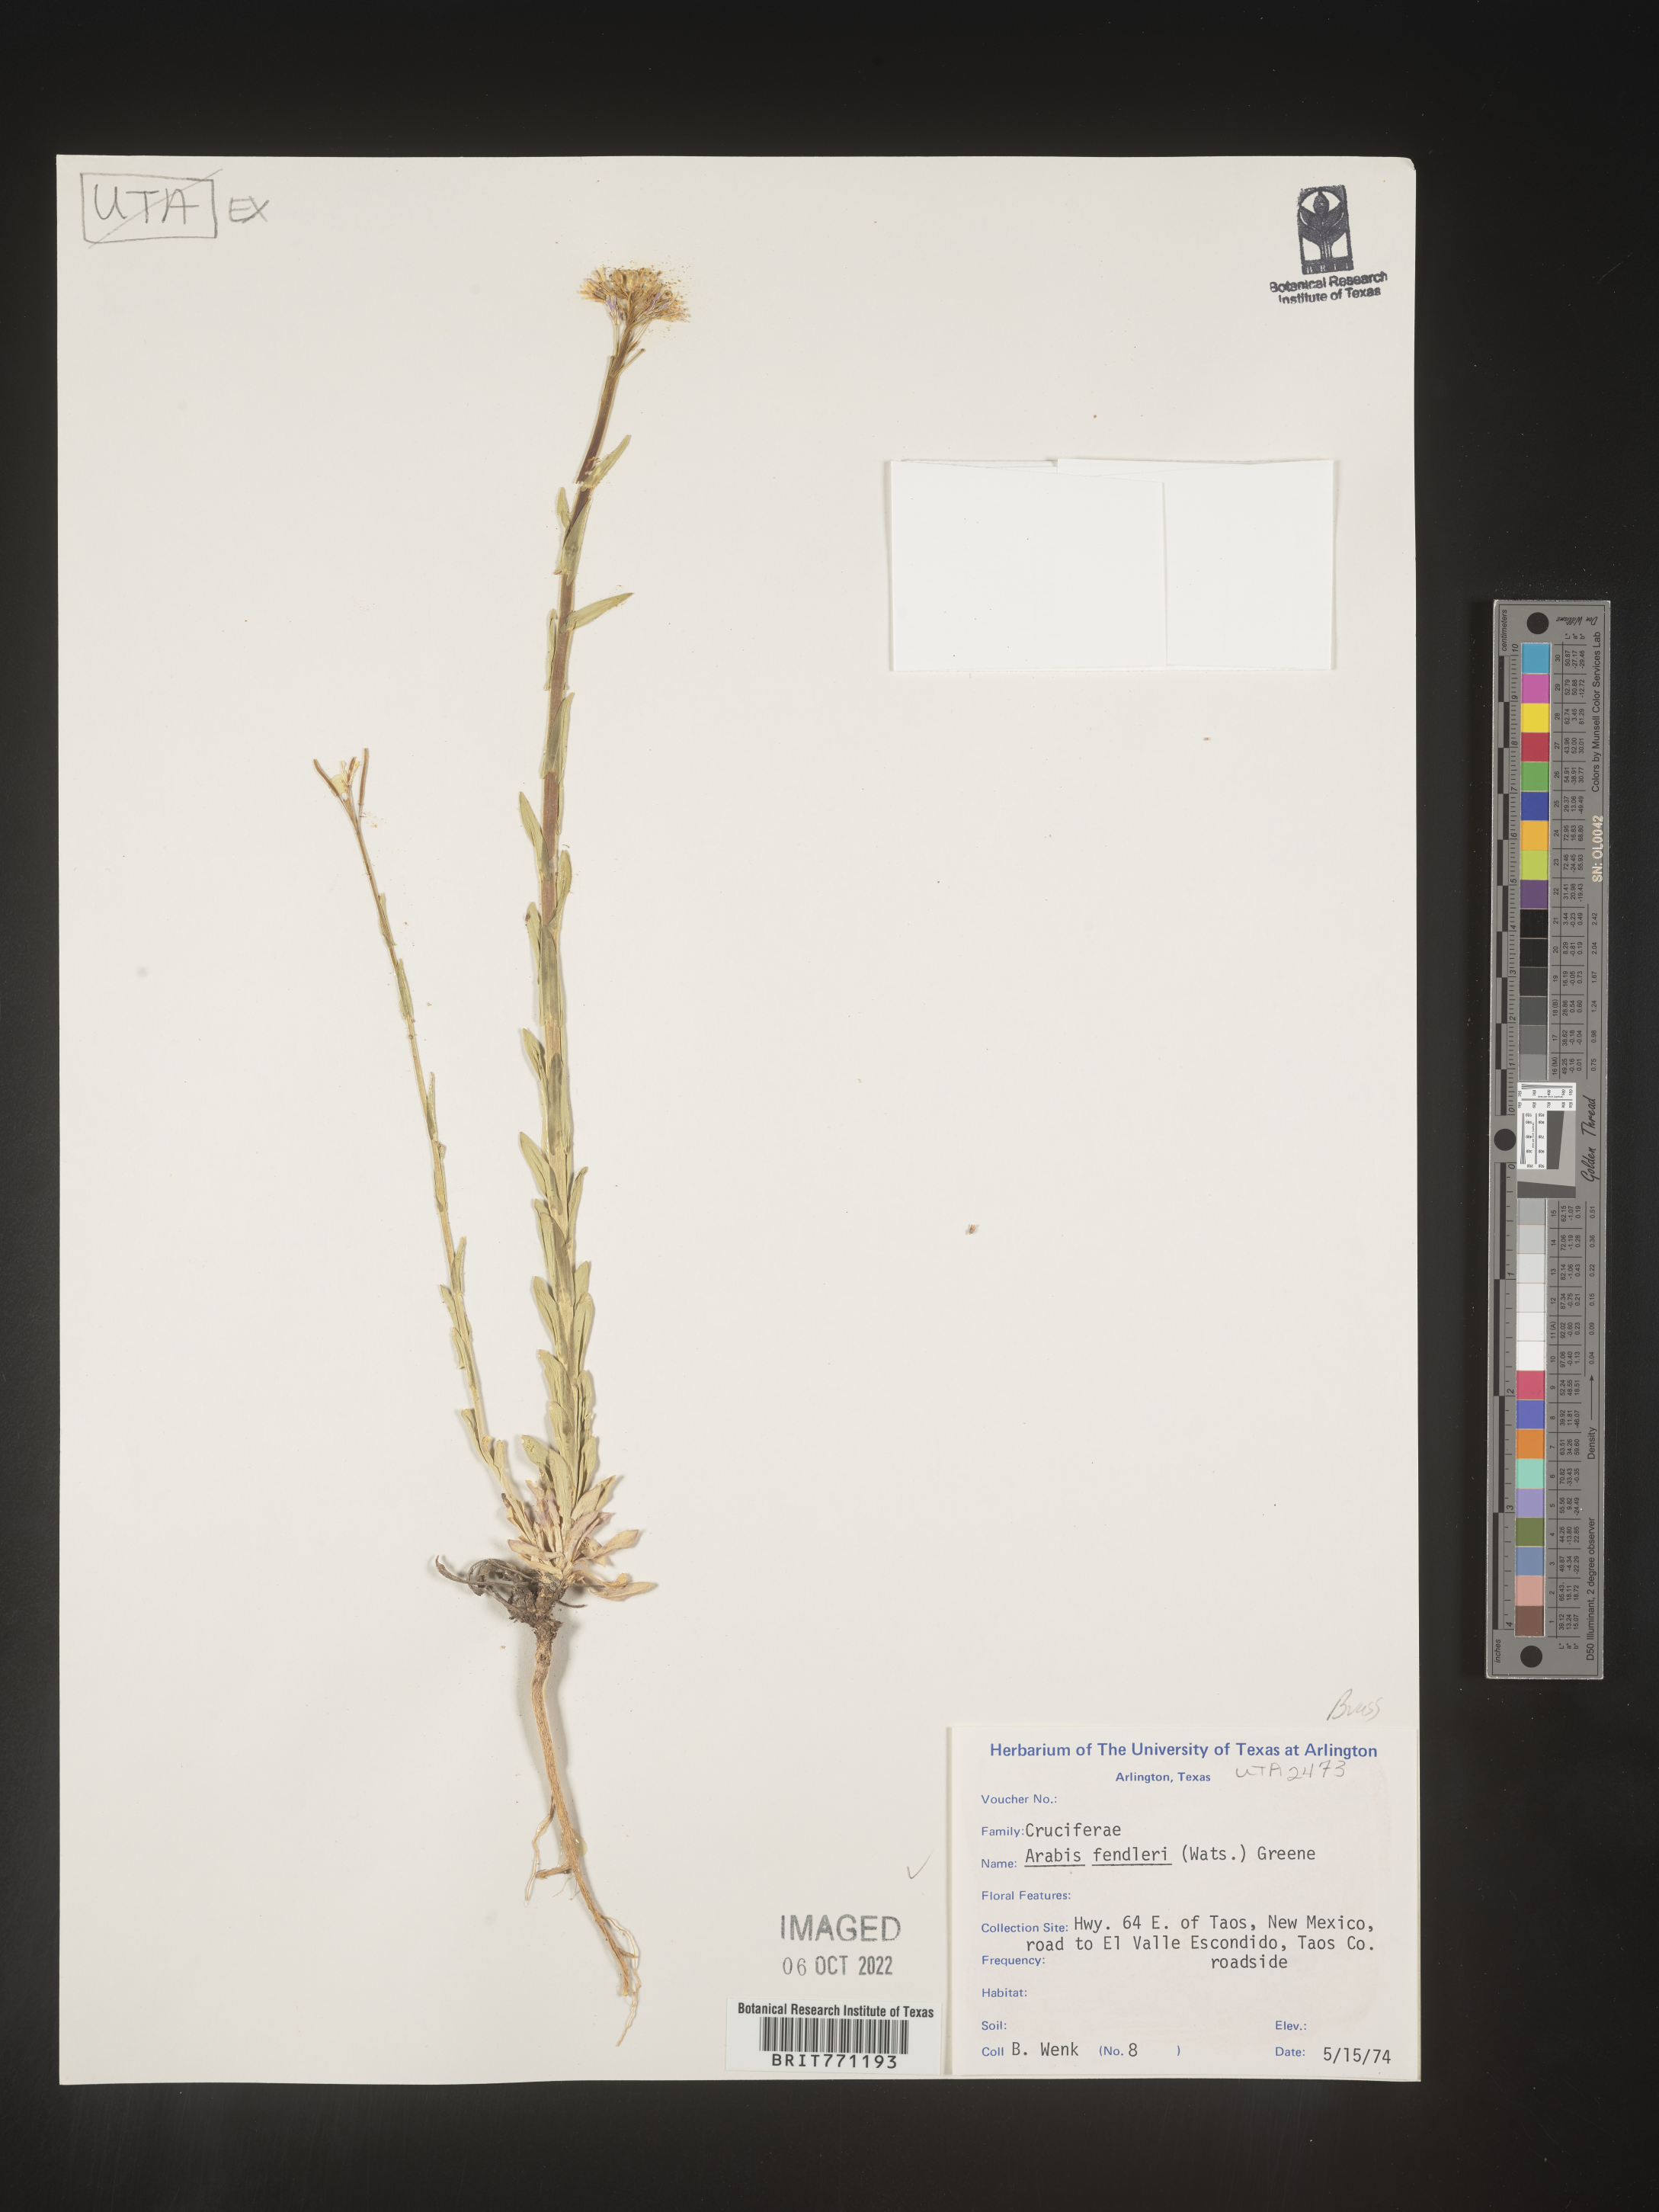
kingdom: Plantae
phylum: Tracheophyta
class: Magnoliopsida
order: Brassicales
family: Brassicaceae
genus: Arabis
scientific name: Arabis
